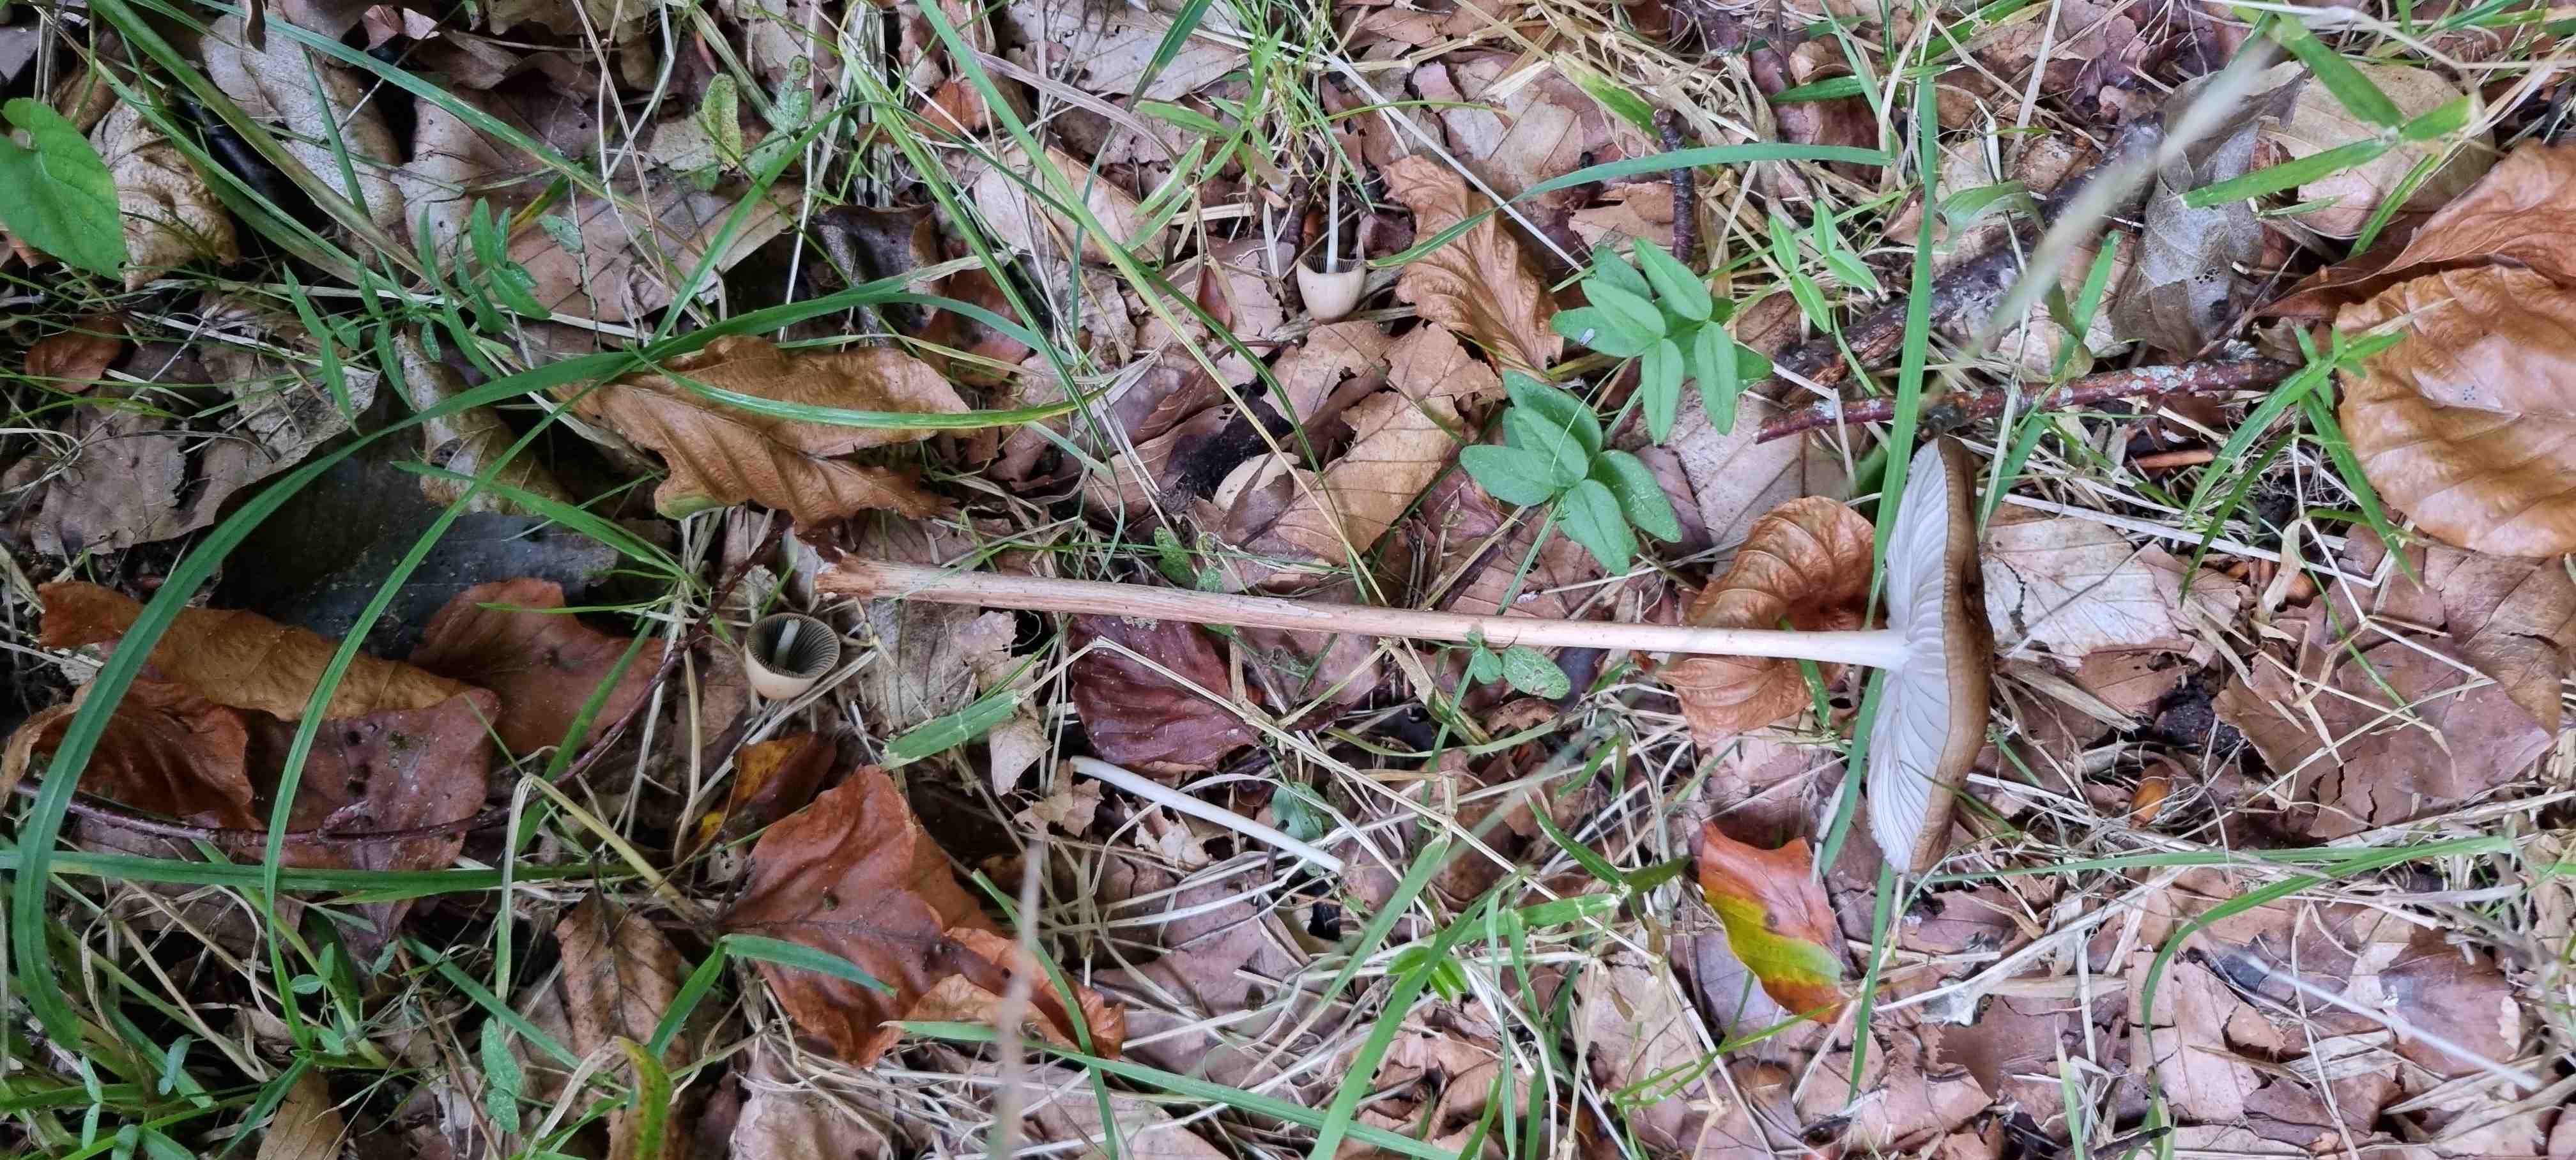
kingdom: Fungi
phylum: Basidiomycota
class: Agaricomycetes
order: Agaricales
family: Physalacriaceae
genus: Hymenopellis
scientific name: Hymenopellis radicata
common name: almindelig pælerodshat
